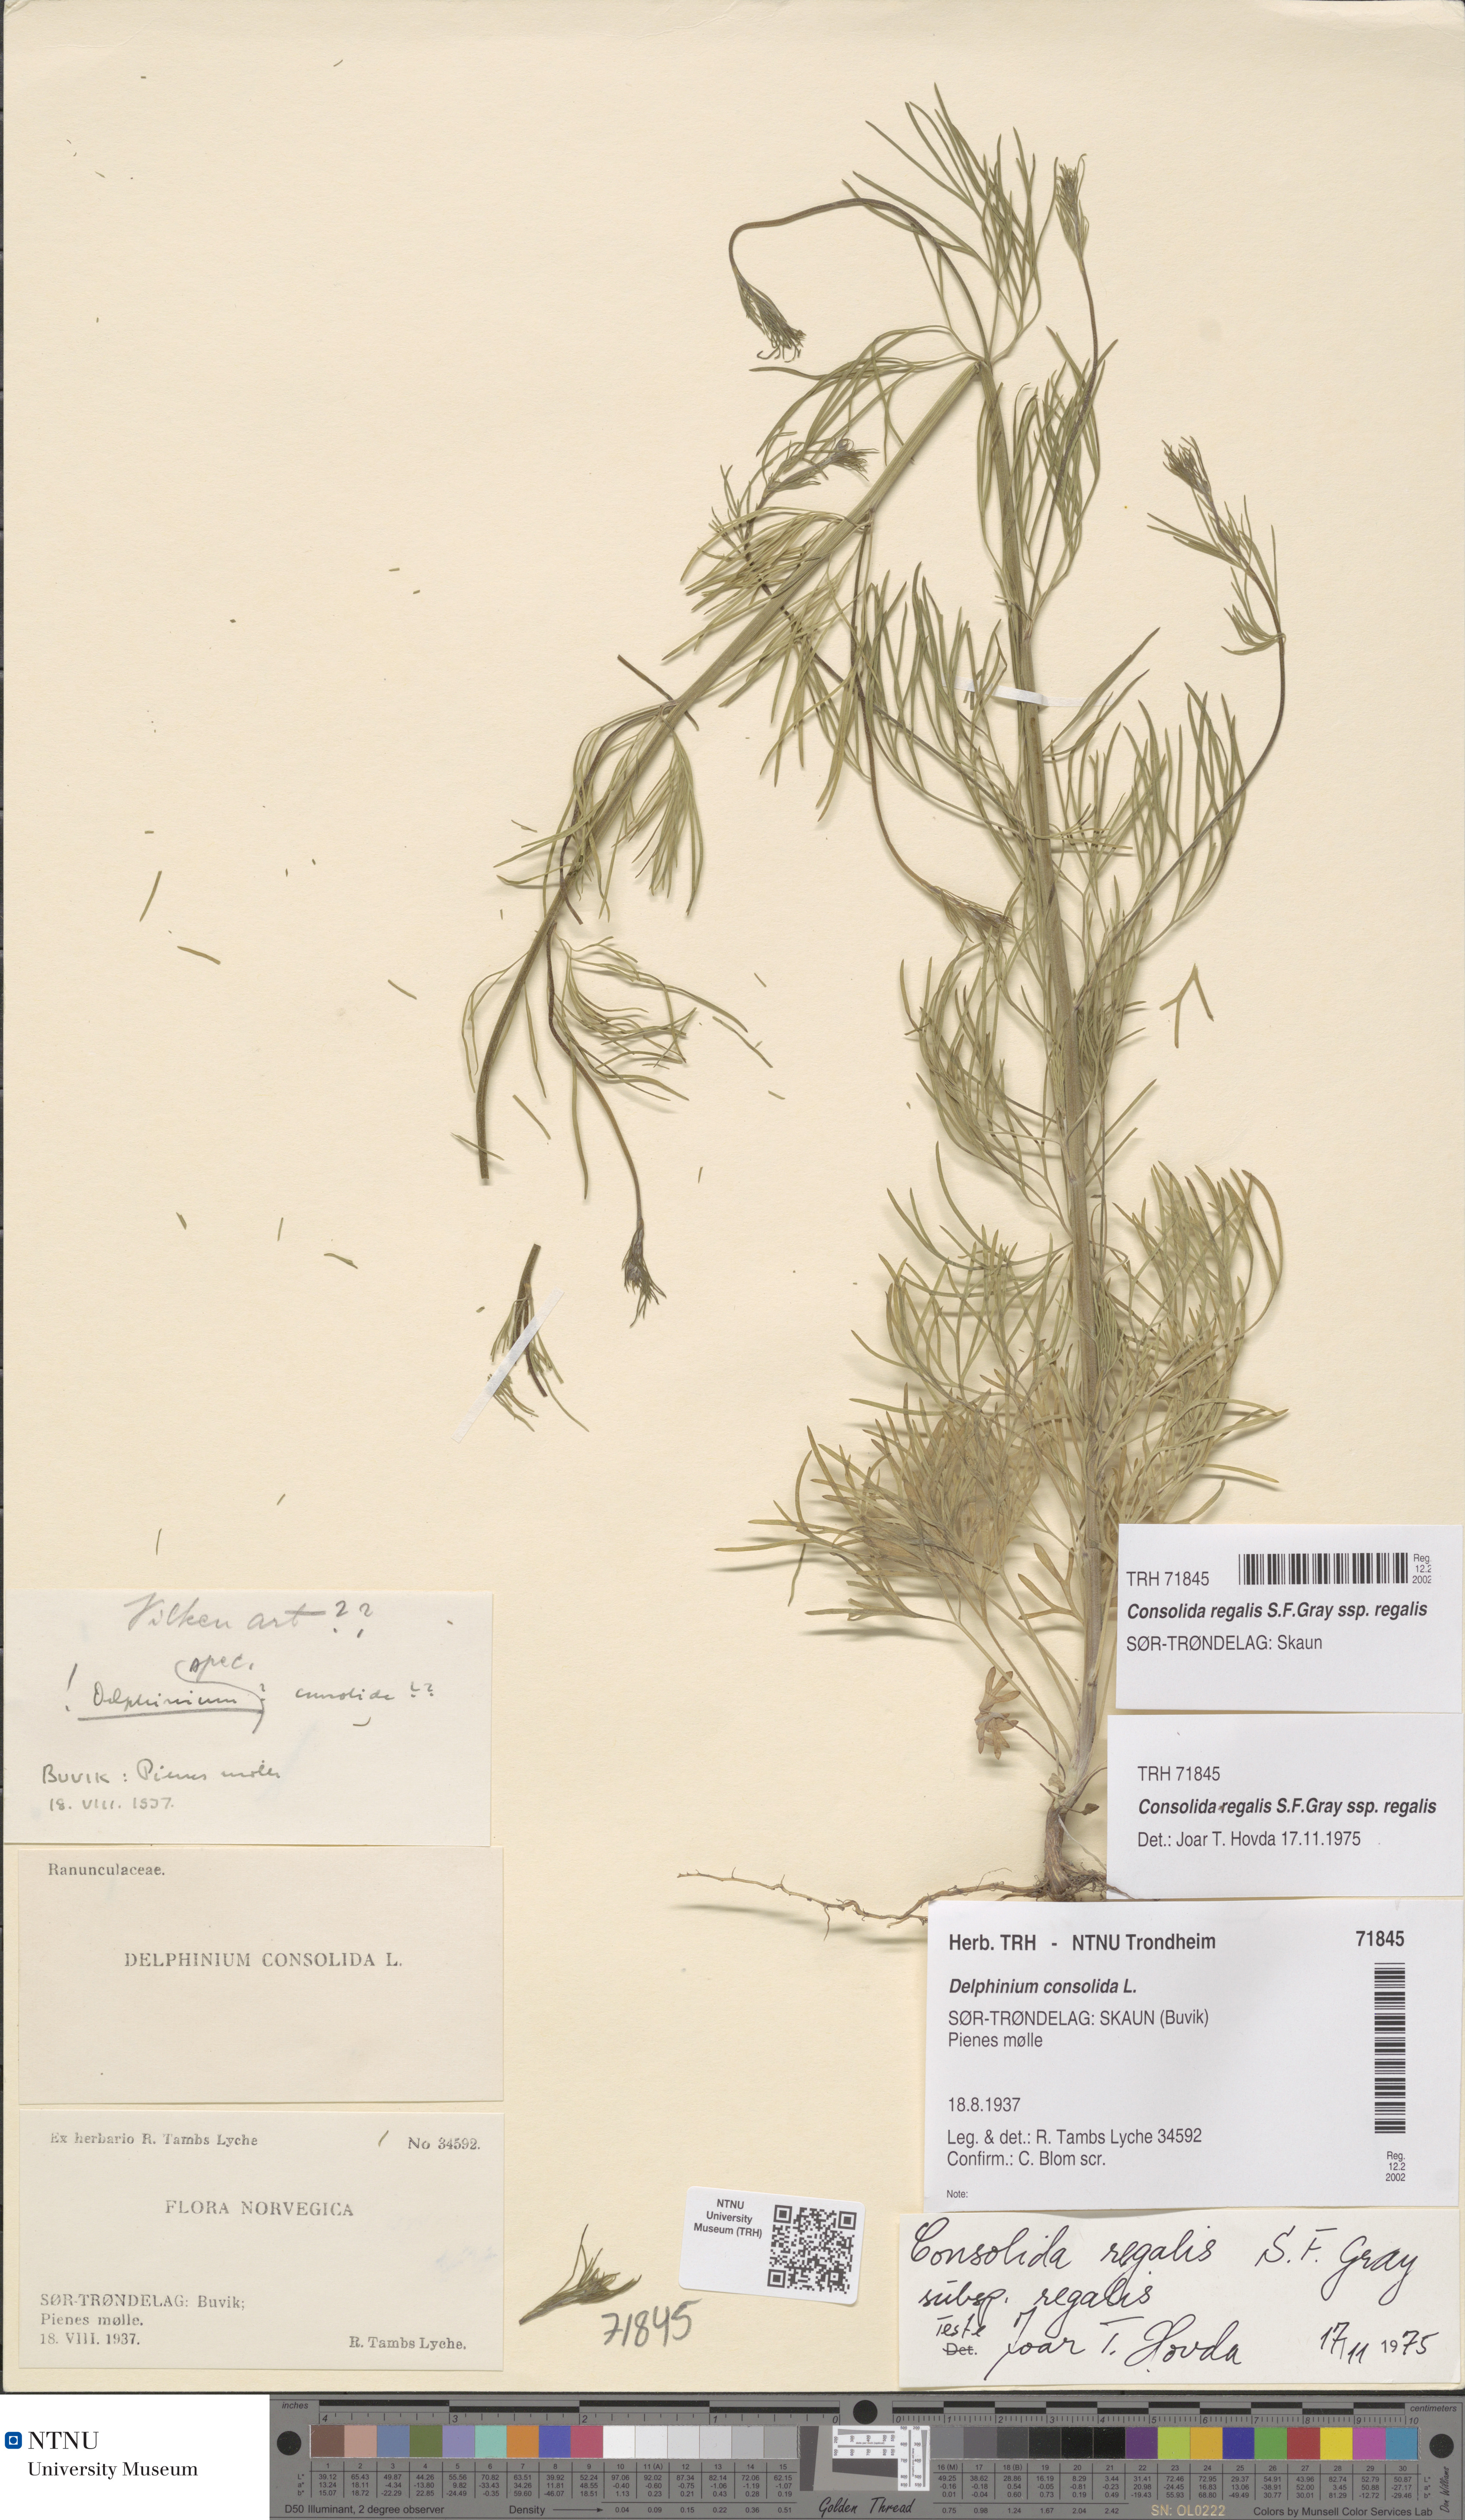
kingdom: Plantae
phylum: Tracheophyta
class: Magnoliopsida
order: Ranunculales
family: Ranunculaceae
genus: Delphinium
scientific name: Delphinium consolida
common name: Branching larkspur
